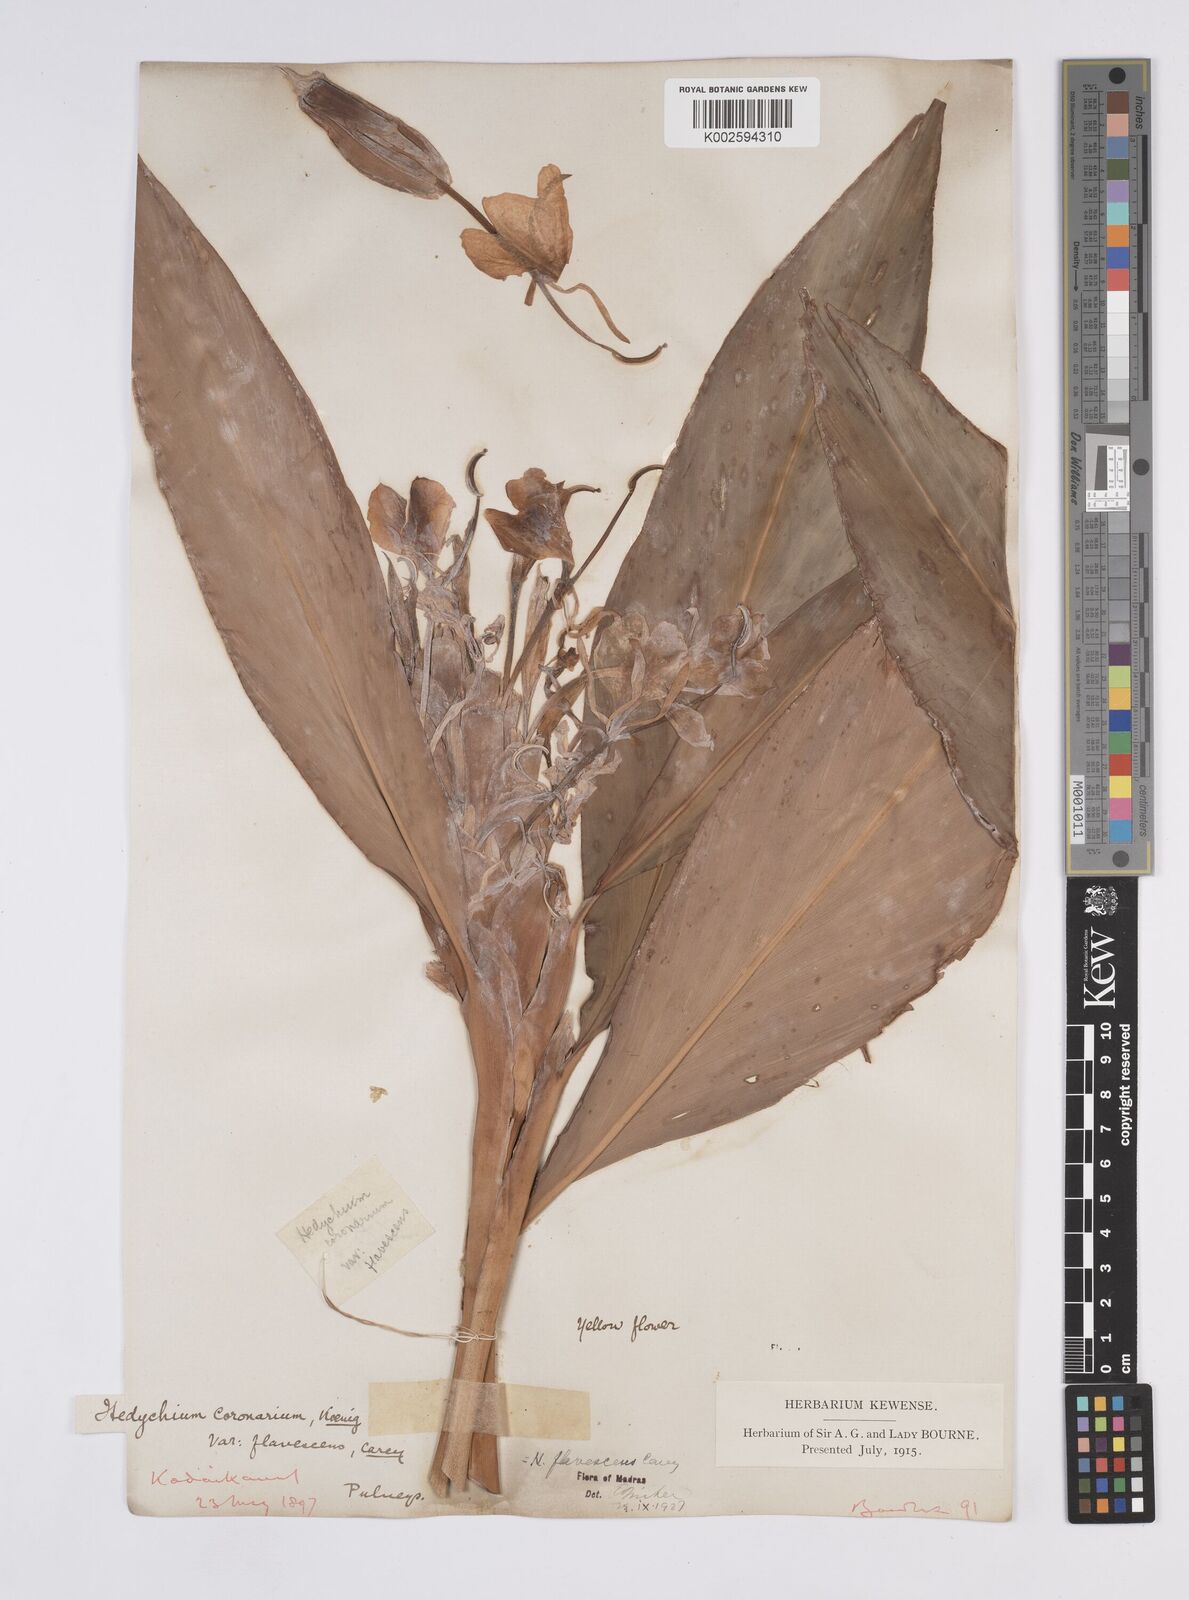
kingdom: Plantae
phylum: Tracheophyta
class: Liliopsida
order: Zingiberales
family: Zingiberaceae
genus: Hedychium
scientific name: Hedychium flavescens
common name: Yellow ginger
